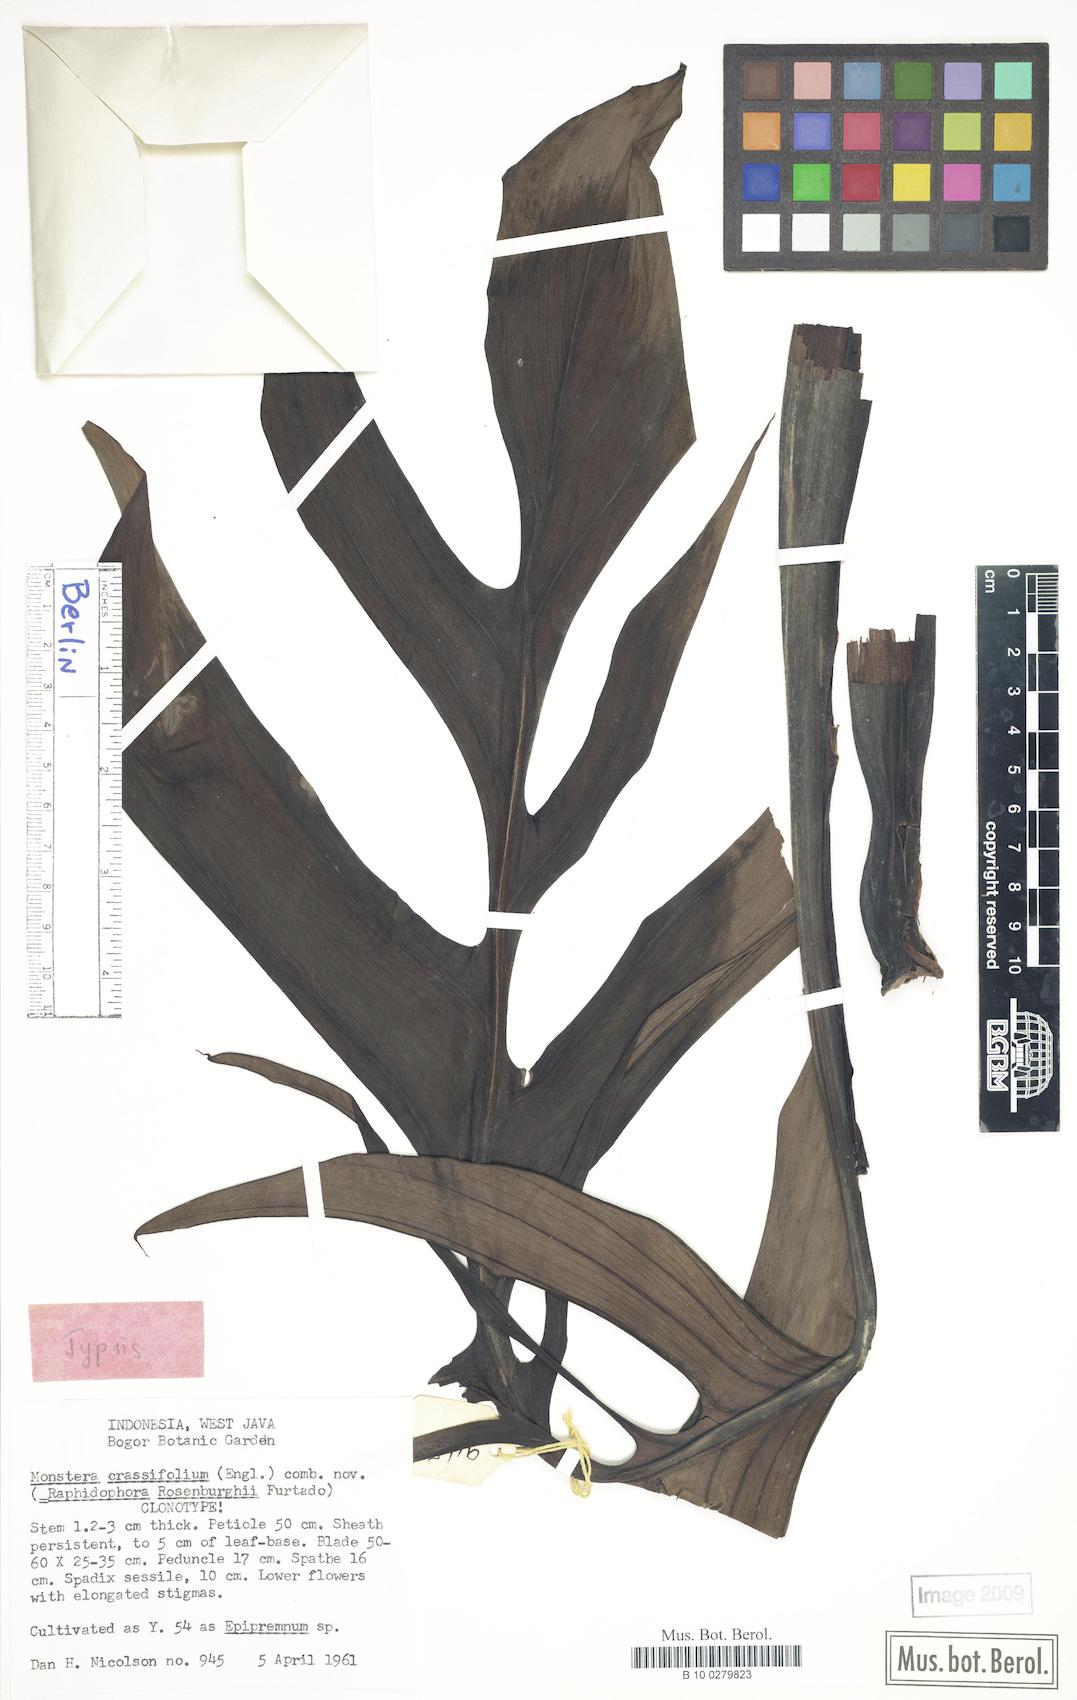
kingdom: Plantae
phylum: Tracheophyta
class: Liliopsida
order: Alismatales
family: Araceae
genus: Monstera
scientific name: Monstera adansonii
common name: Tarovine
